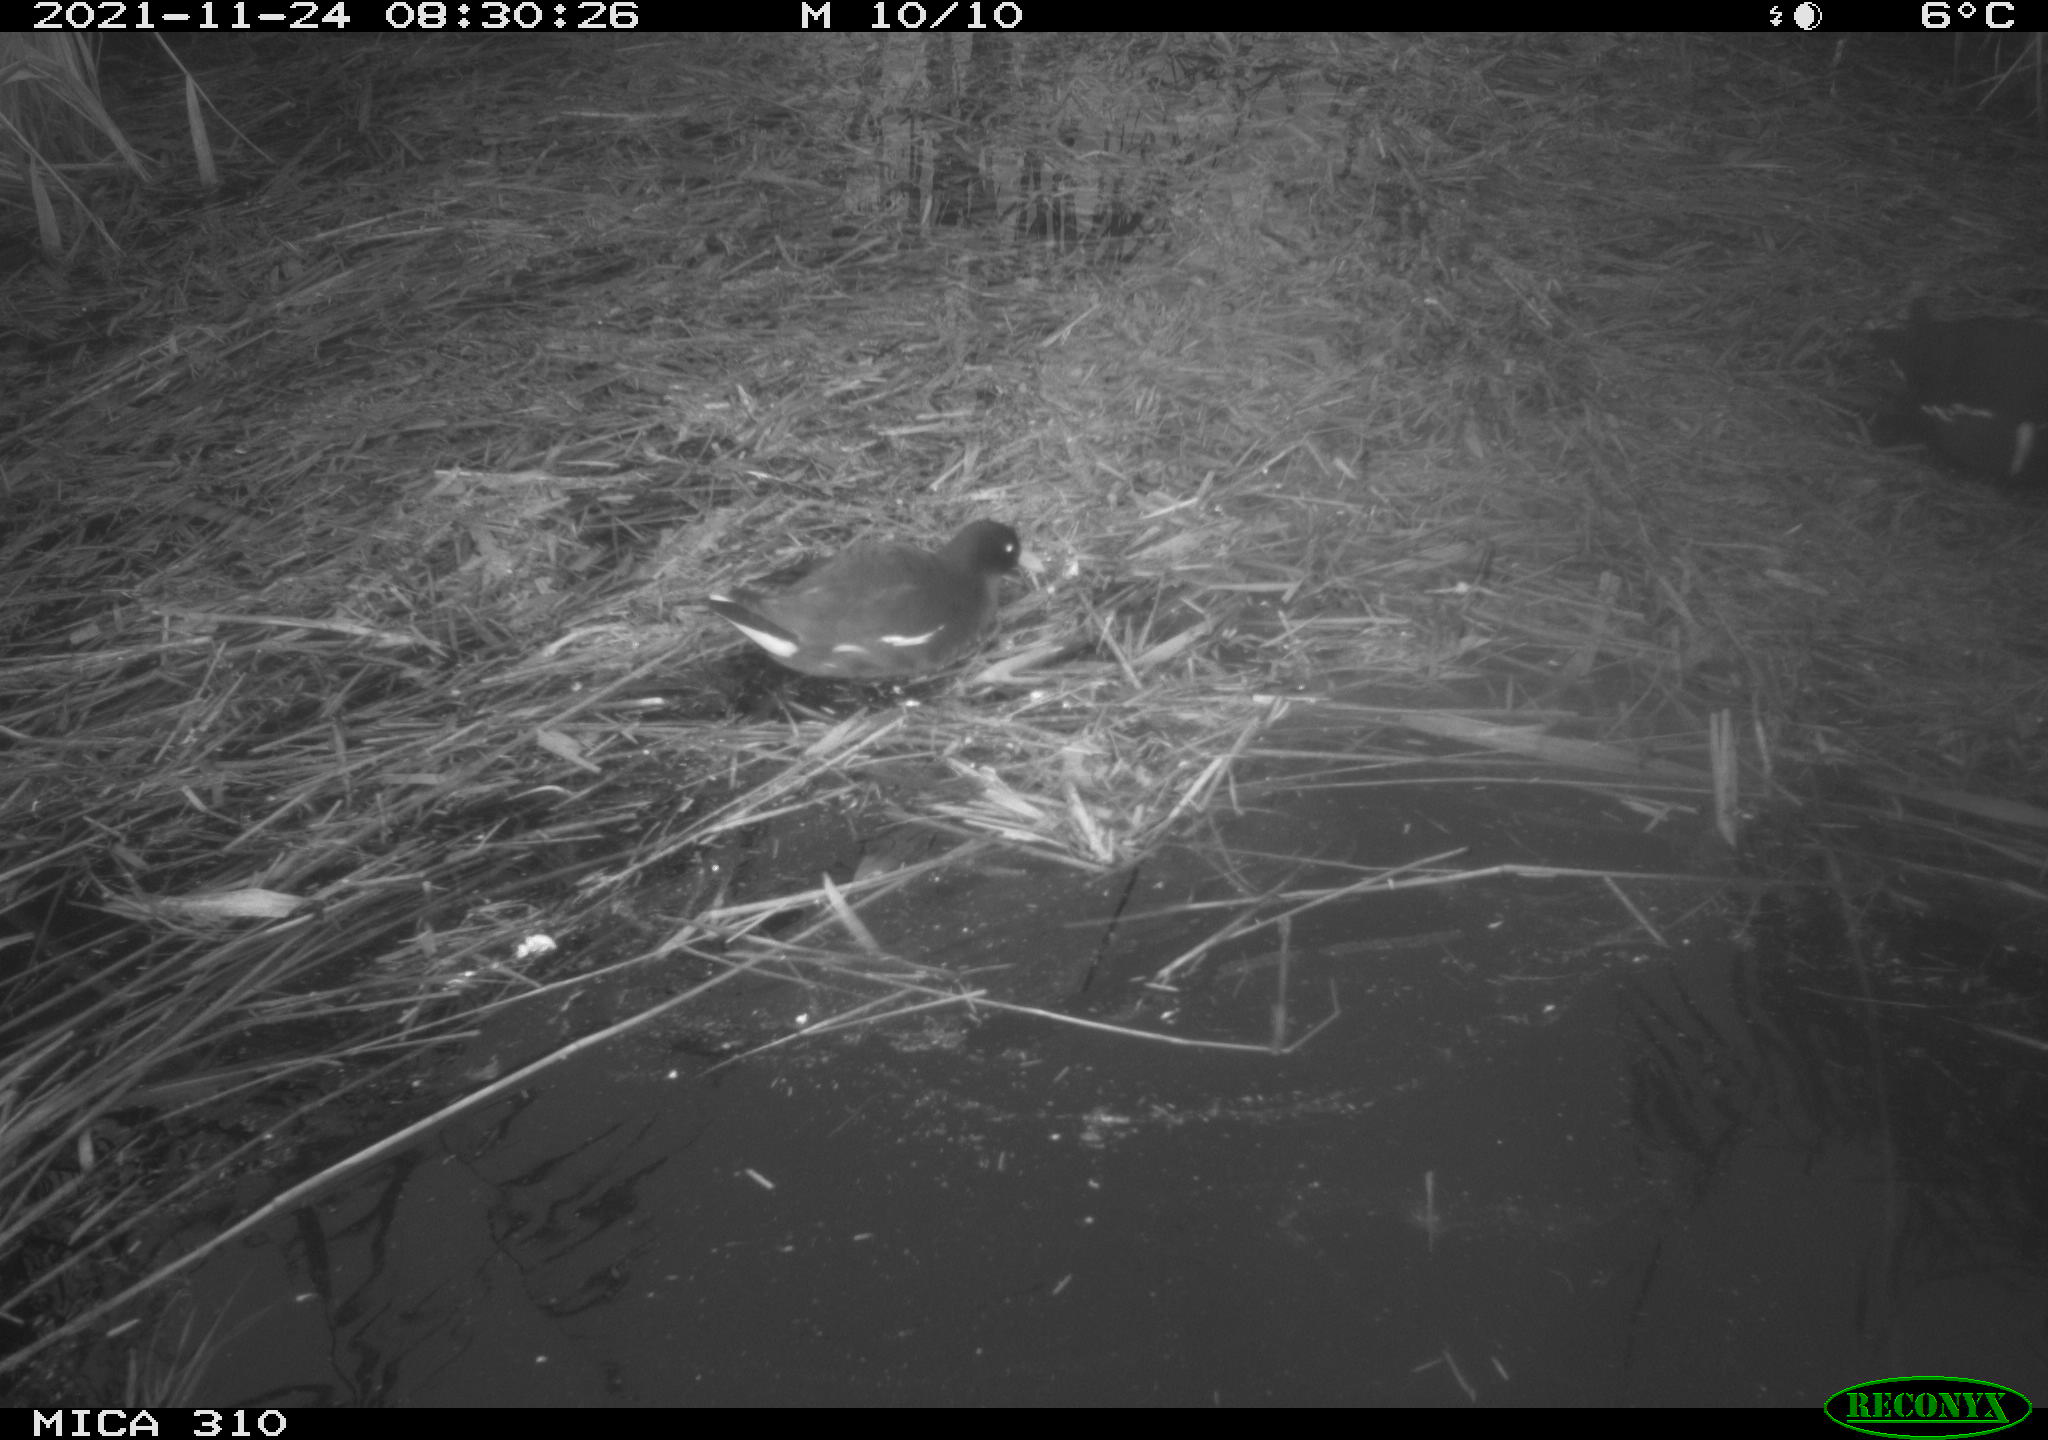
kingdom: Animalia
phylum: Chordata
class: Aves
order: Gruiformes
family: Rallidae
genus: Gallinula
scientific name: Gallinula chloropus
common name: Common moorhen
